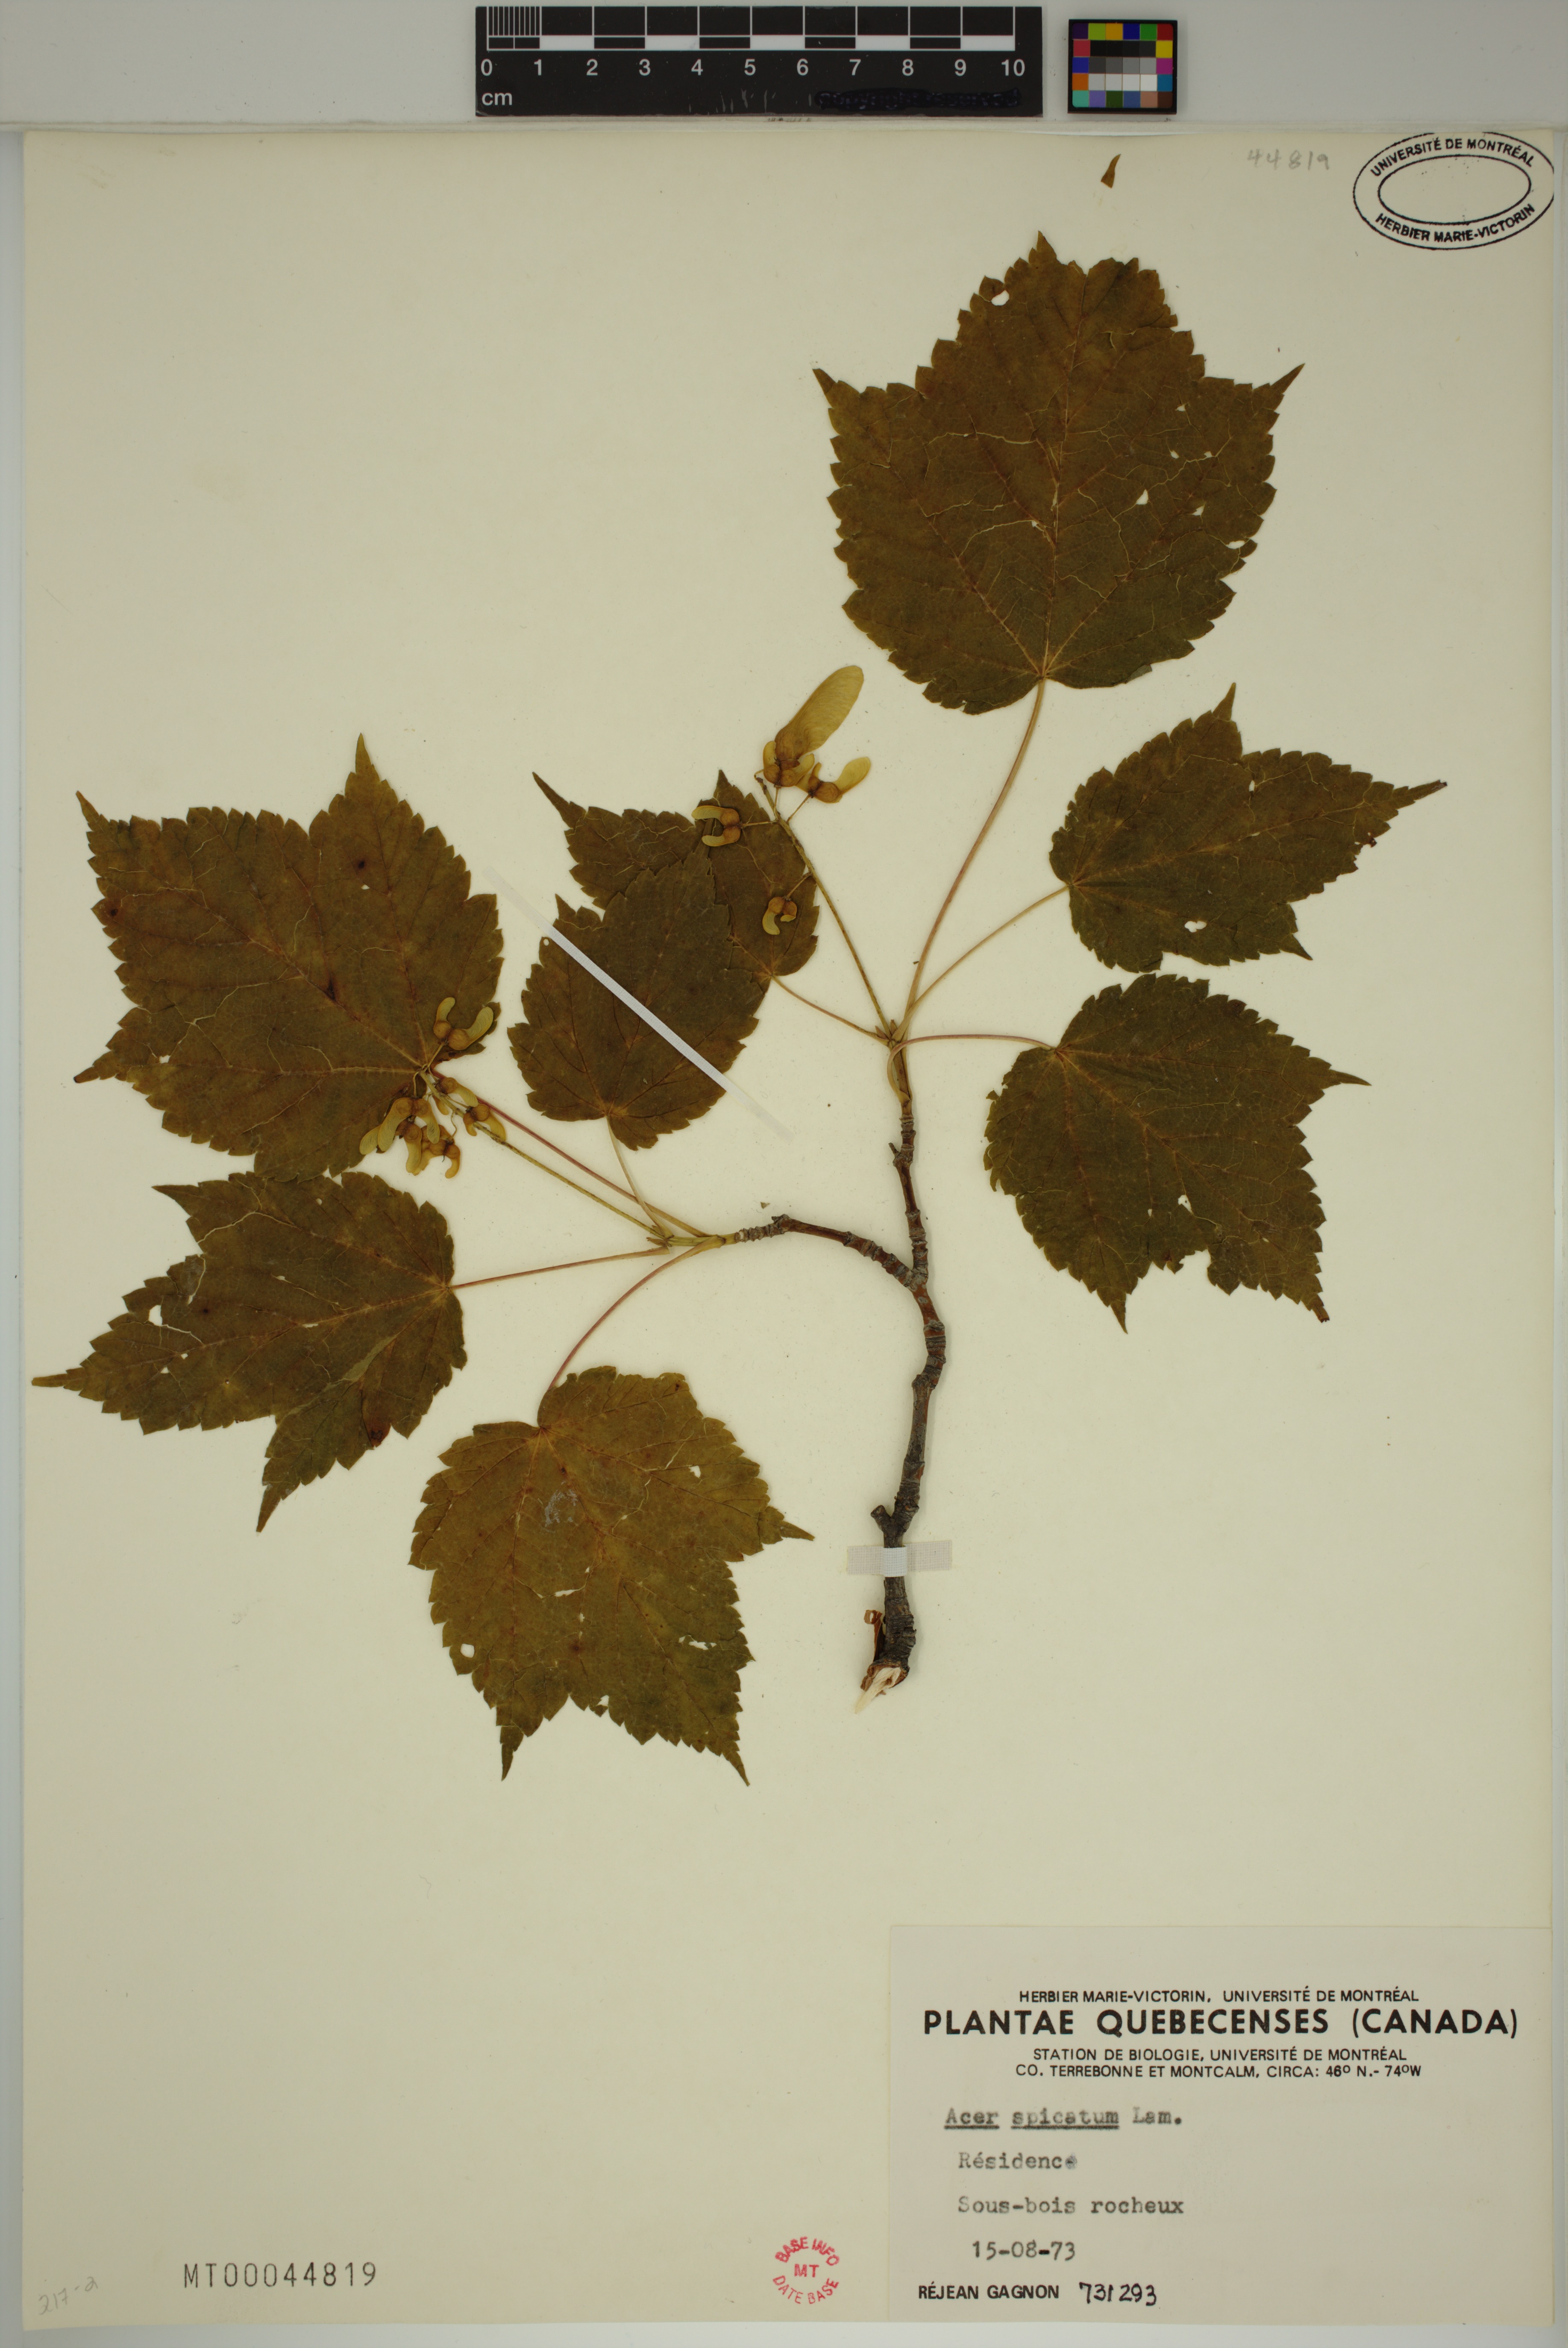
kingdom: Plantae
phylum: Tracheophyta
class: Magnoliopsida
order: Sapindales
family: Sapindaceae
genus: Acer
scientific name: Acer spicatum
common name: Mountain maple
